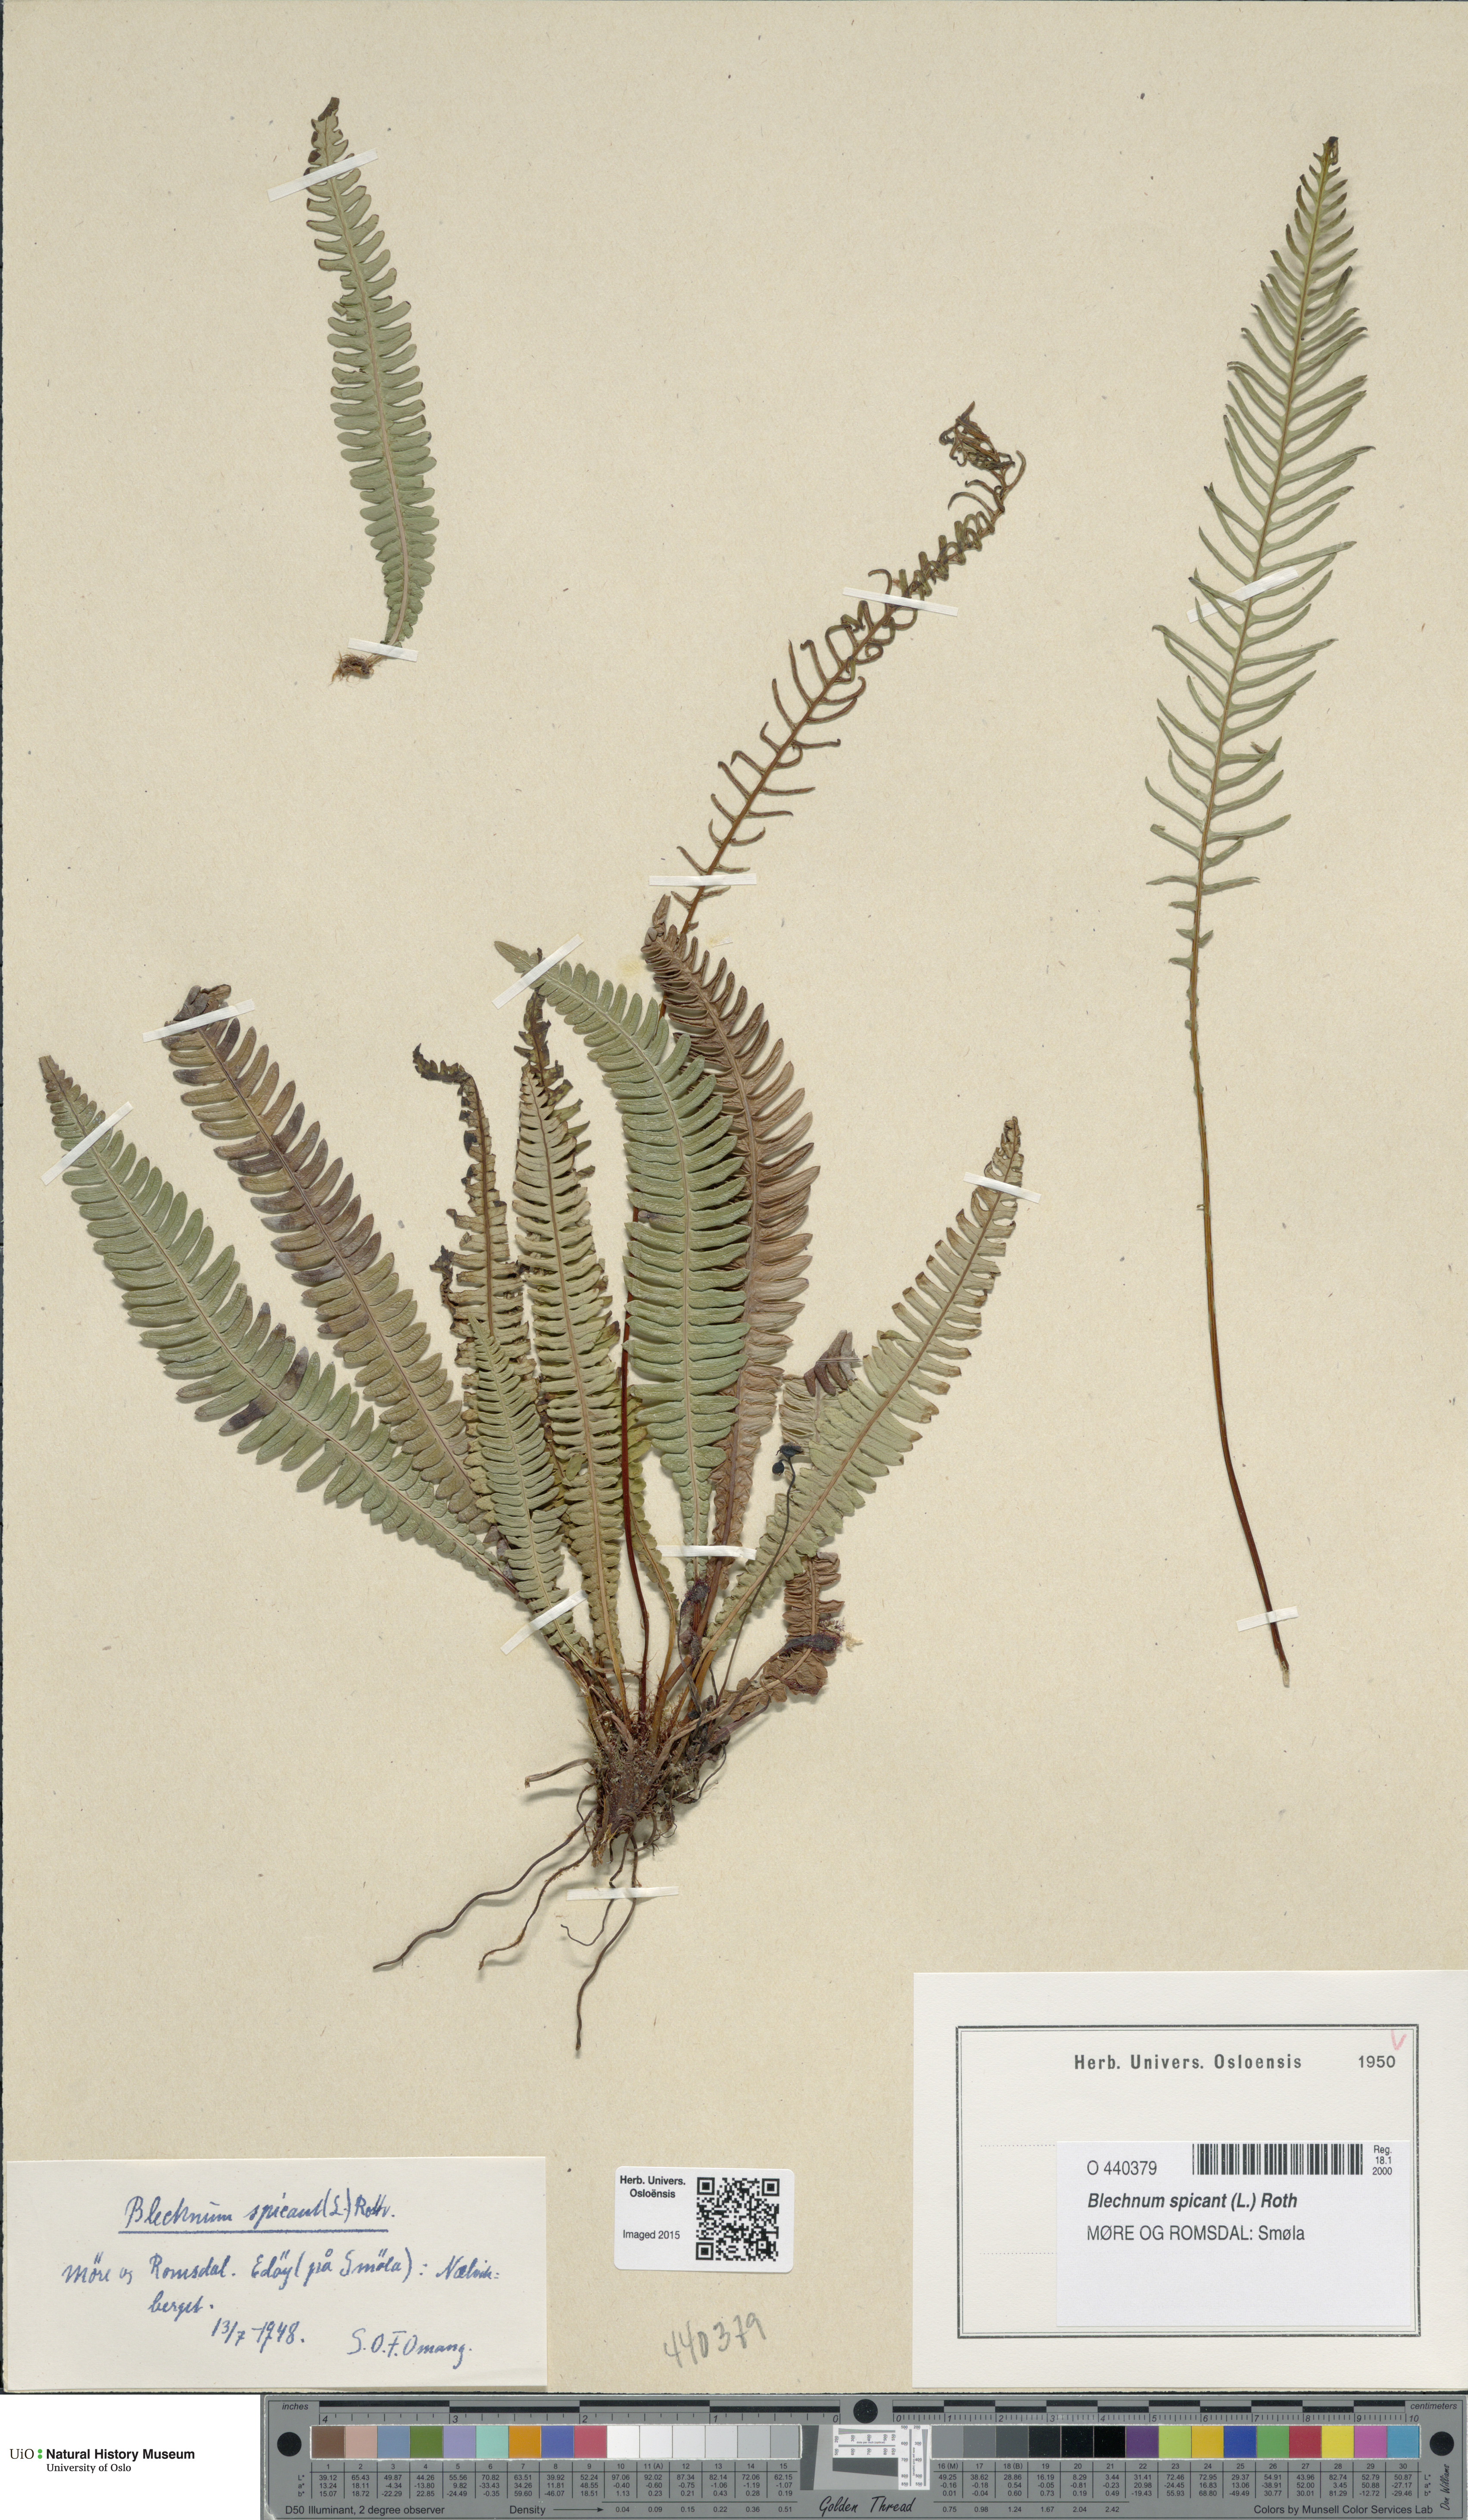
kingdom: Plantae
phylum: Tracheophyta
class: Polypodiopsida
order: Polypodiales
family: Blechnaceae
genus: Struthiopteris
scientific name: Struthiopteris spicant
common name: Deer fern
